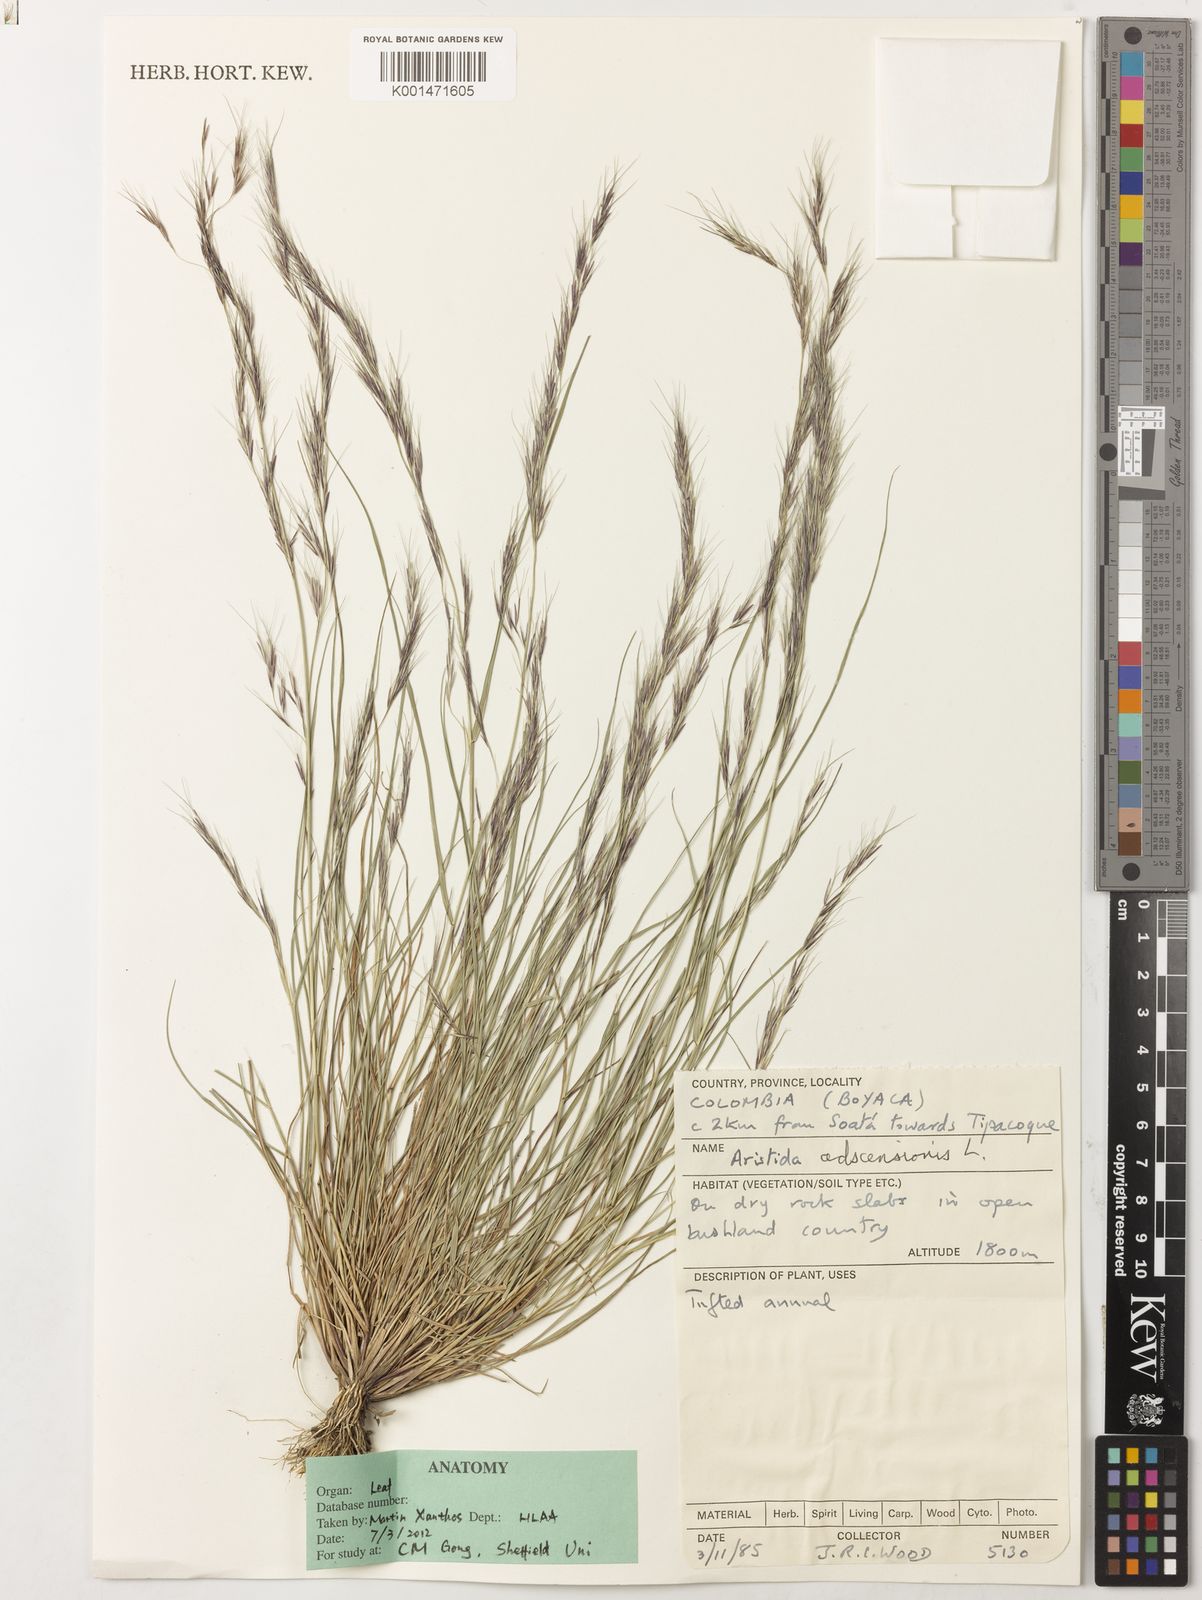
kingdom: Plantae
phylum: Tracheophyta
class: Liliopsida
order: Poales
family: Poaceae
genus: Aristida
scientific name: Aristida adscensionis
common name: Sixweeks threeawn
